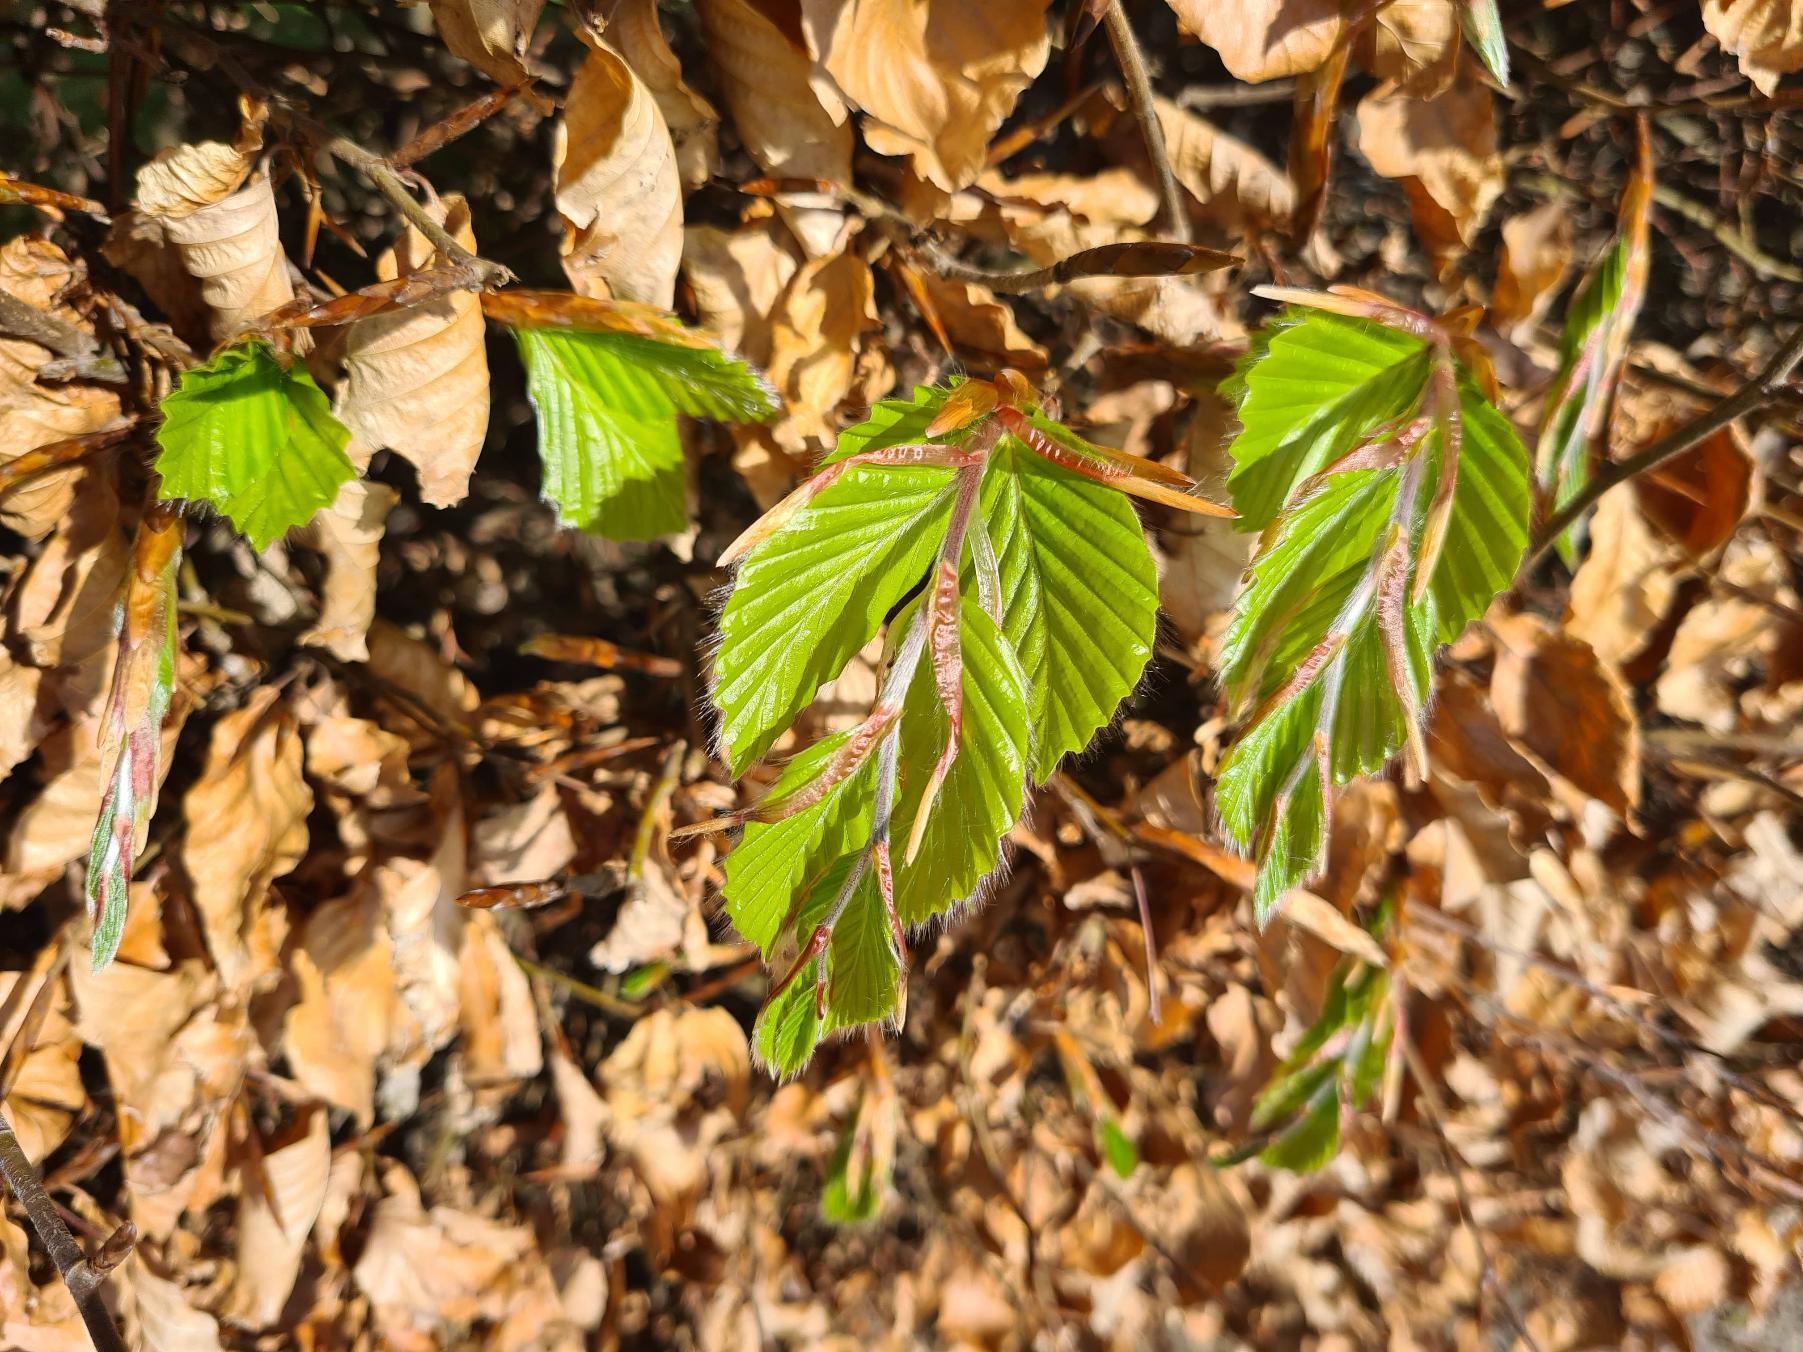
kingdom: Plantae
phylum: Tracheophyta
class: Magnoliopsida
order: Fagales
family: Fagaceae
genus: Fagus
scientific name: Fagus sylvatica
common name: Bøg
